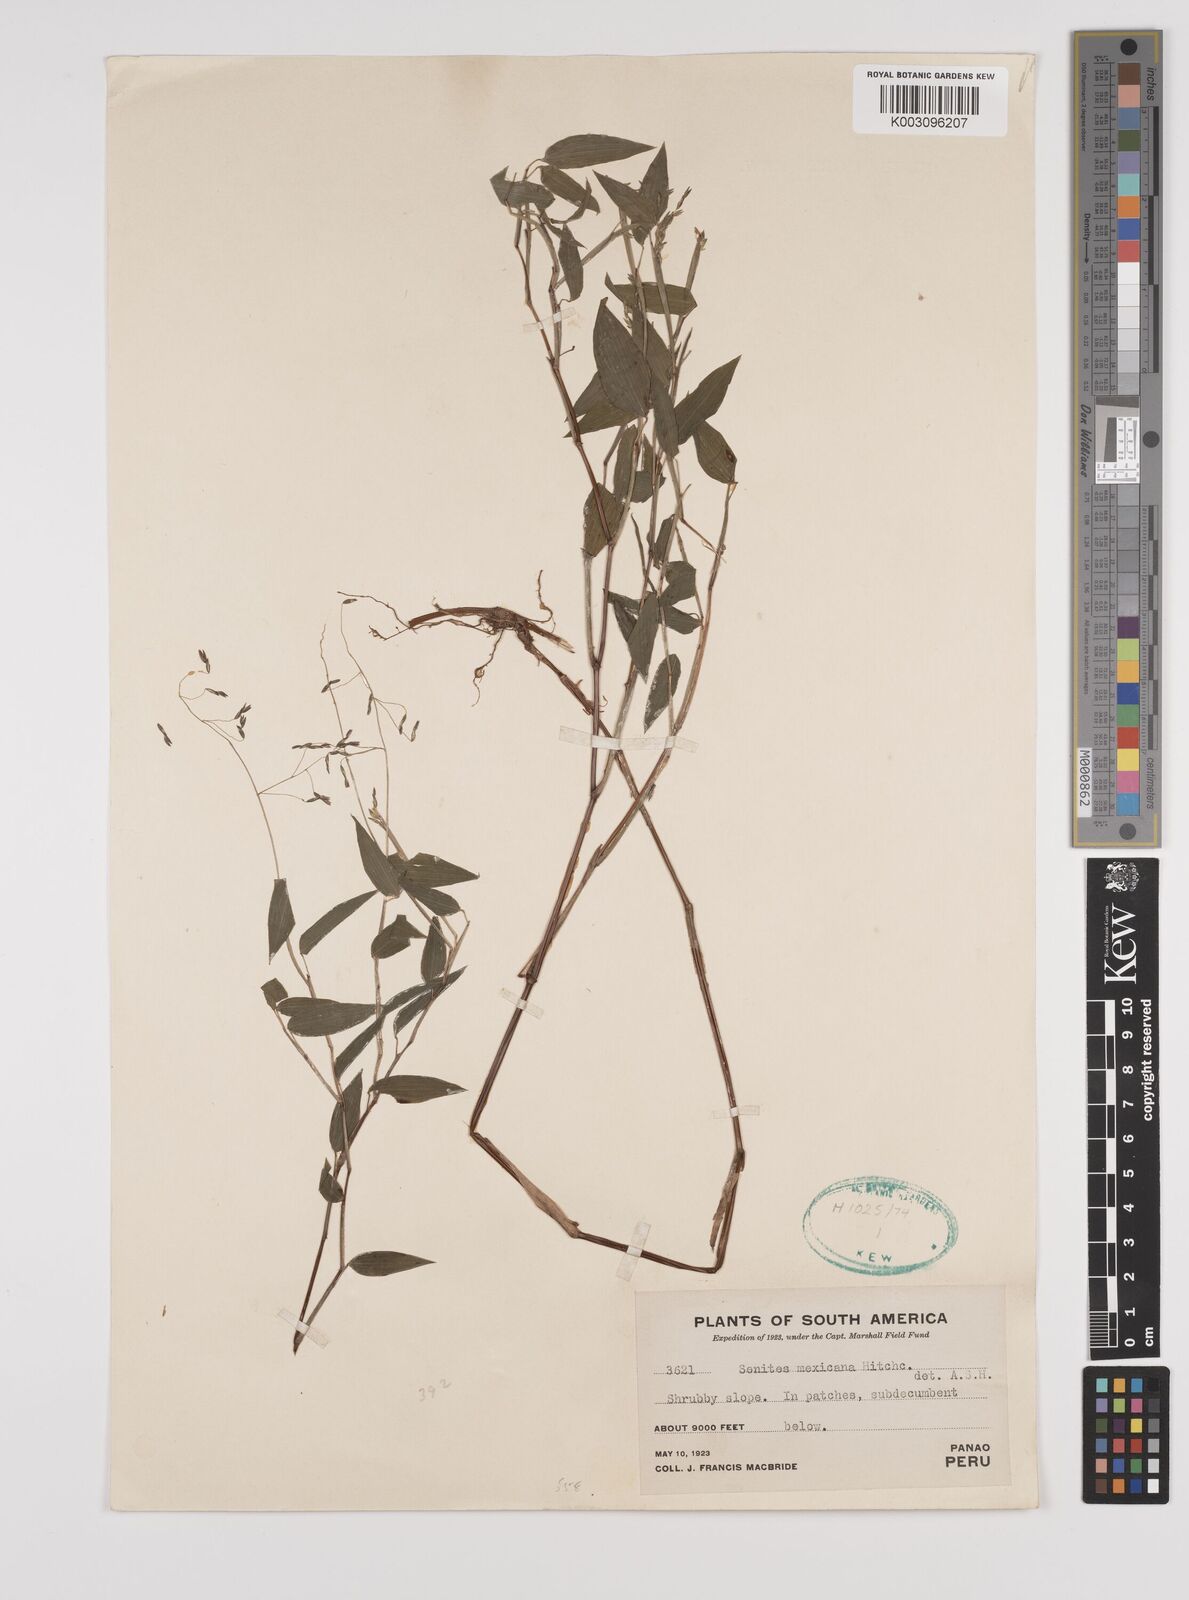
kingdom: Plantae
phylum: Tracheophyta
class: Liliopsida
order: Poales
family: Poaceae
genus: Zeugites
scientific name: Zeugites americanus
